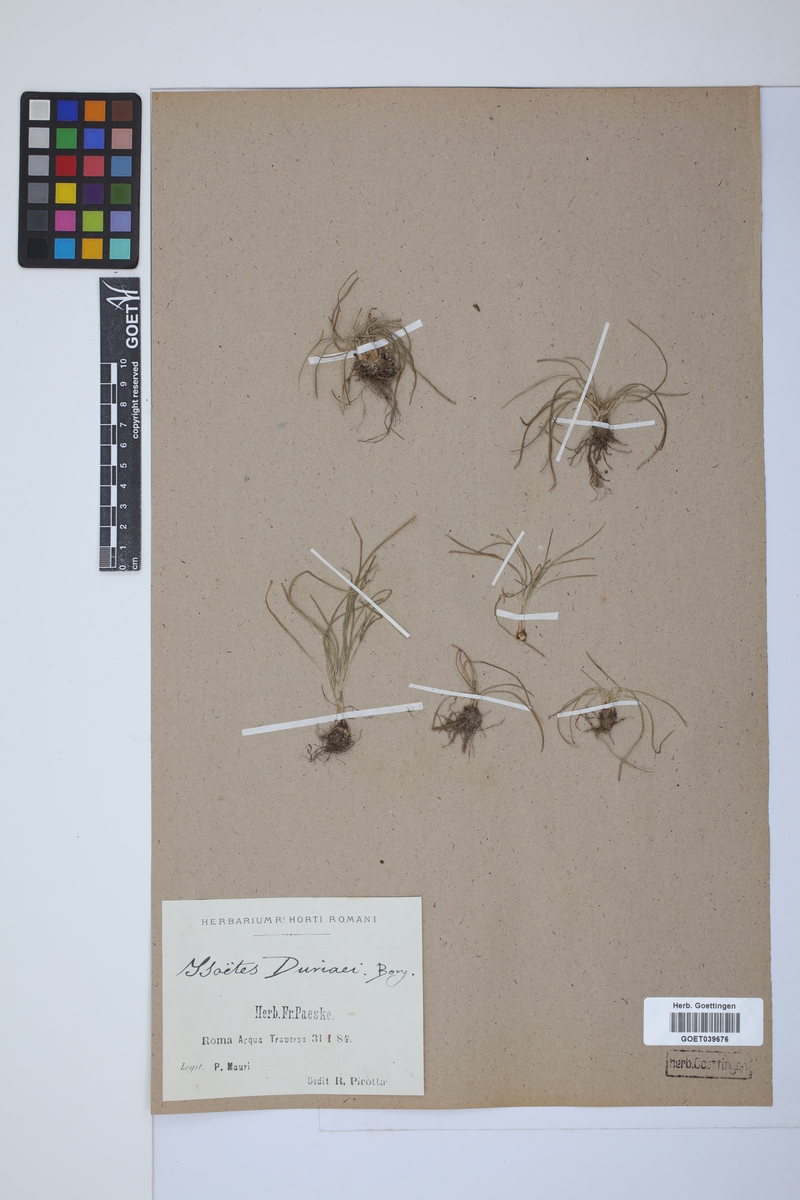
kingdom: Plantae
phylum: Tracheophyta
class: Lycopodiopsida
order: Isoetales
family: Isoetaceae
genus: Isoetes
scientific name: Isoetes duriei
